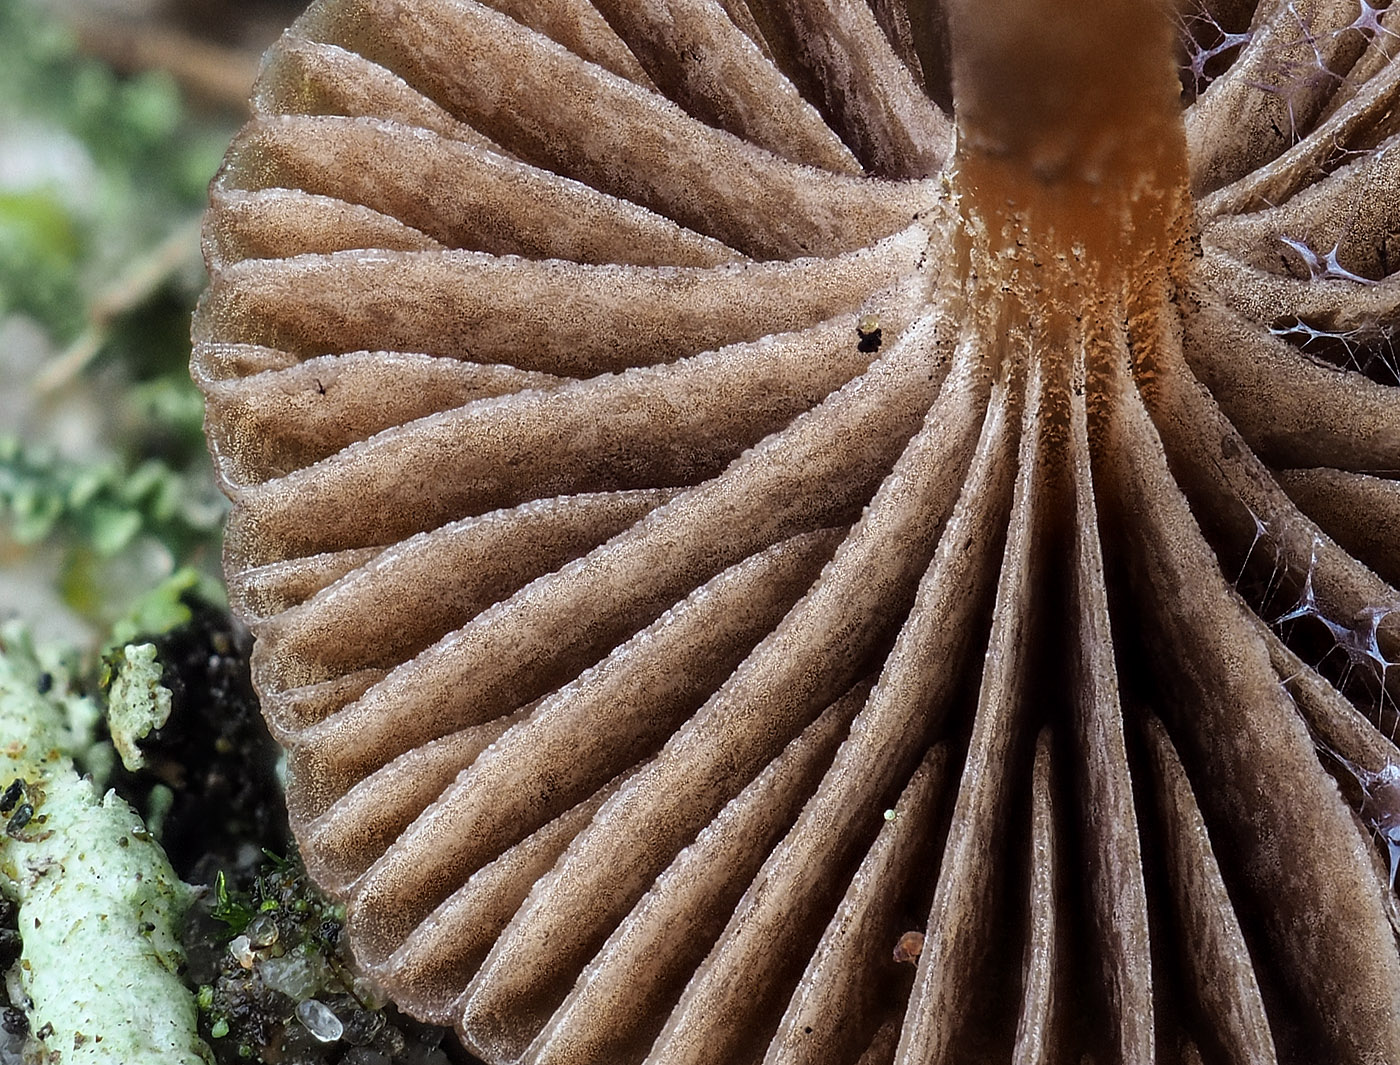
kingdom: Fungi
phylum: Basidiomycota
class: Agaricomycetes
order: Agaricales
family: Strophariaceae
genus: Deconica
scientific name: Deconica montana
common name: rødbrun stråhat
